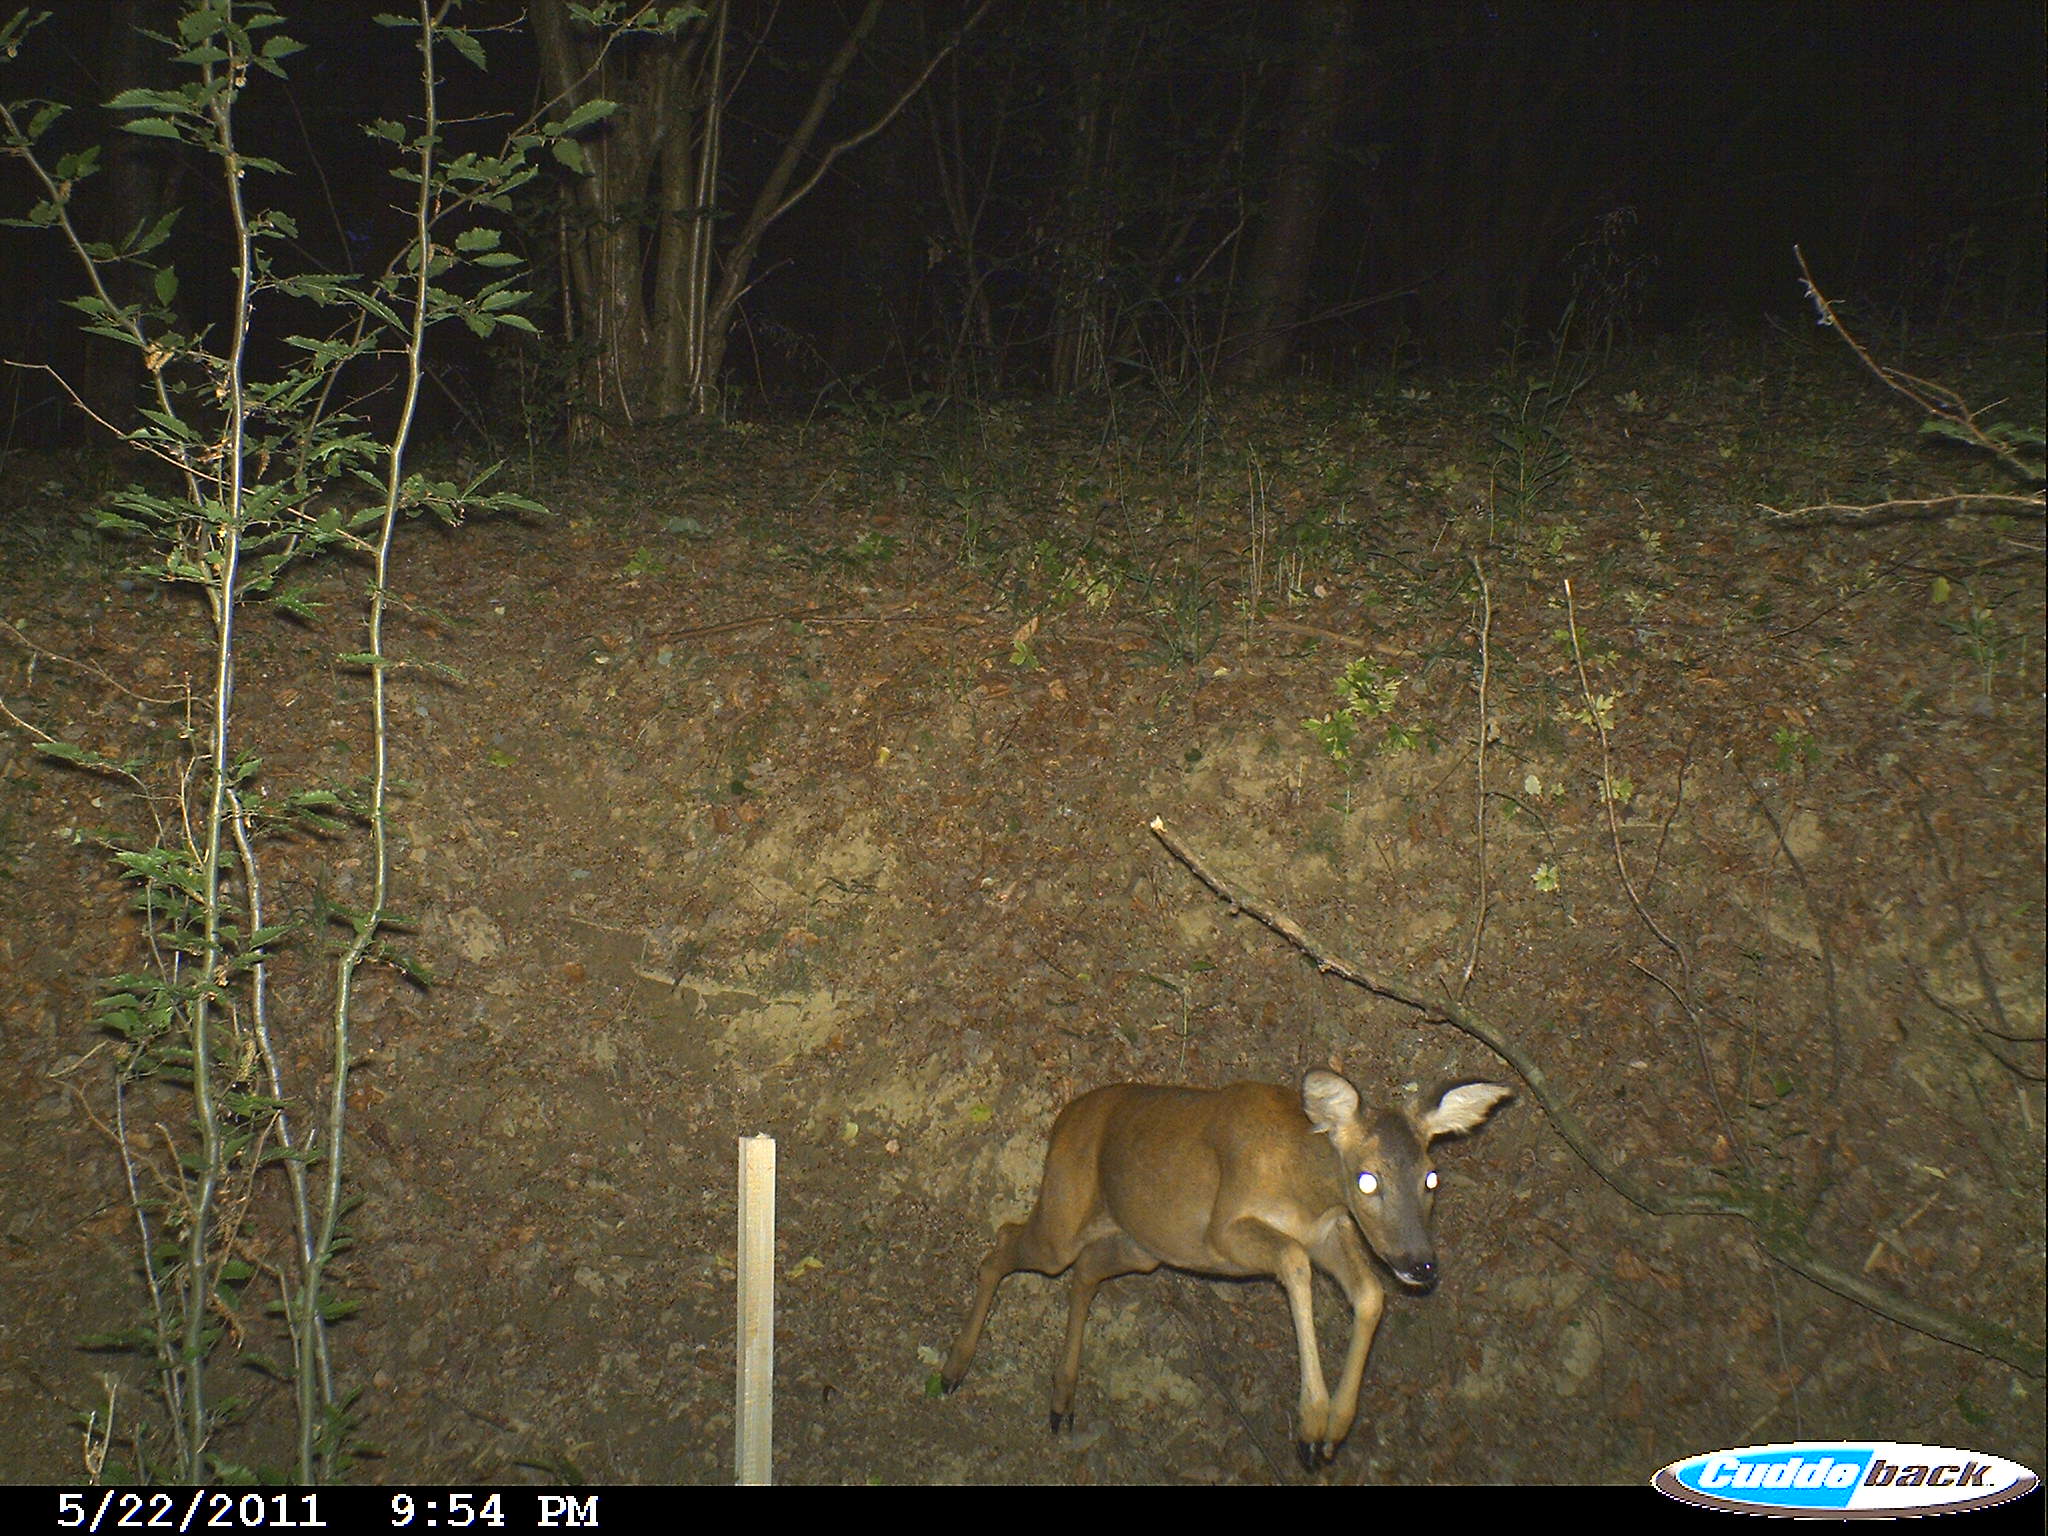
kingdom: Animalia
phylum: Chordata
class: Mammalia
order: Artiodactyla
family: Cervidae
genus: Capreolus
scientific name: Capreolus capreolus
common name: Western roe deer
